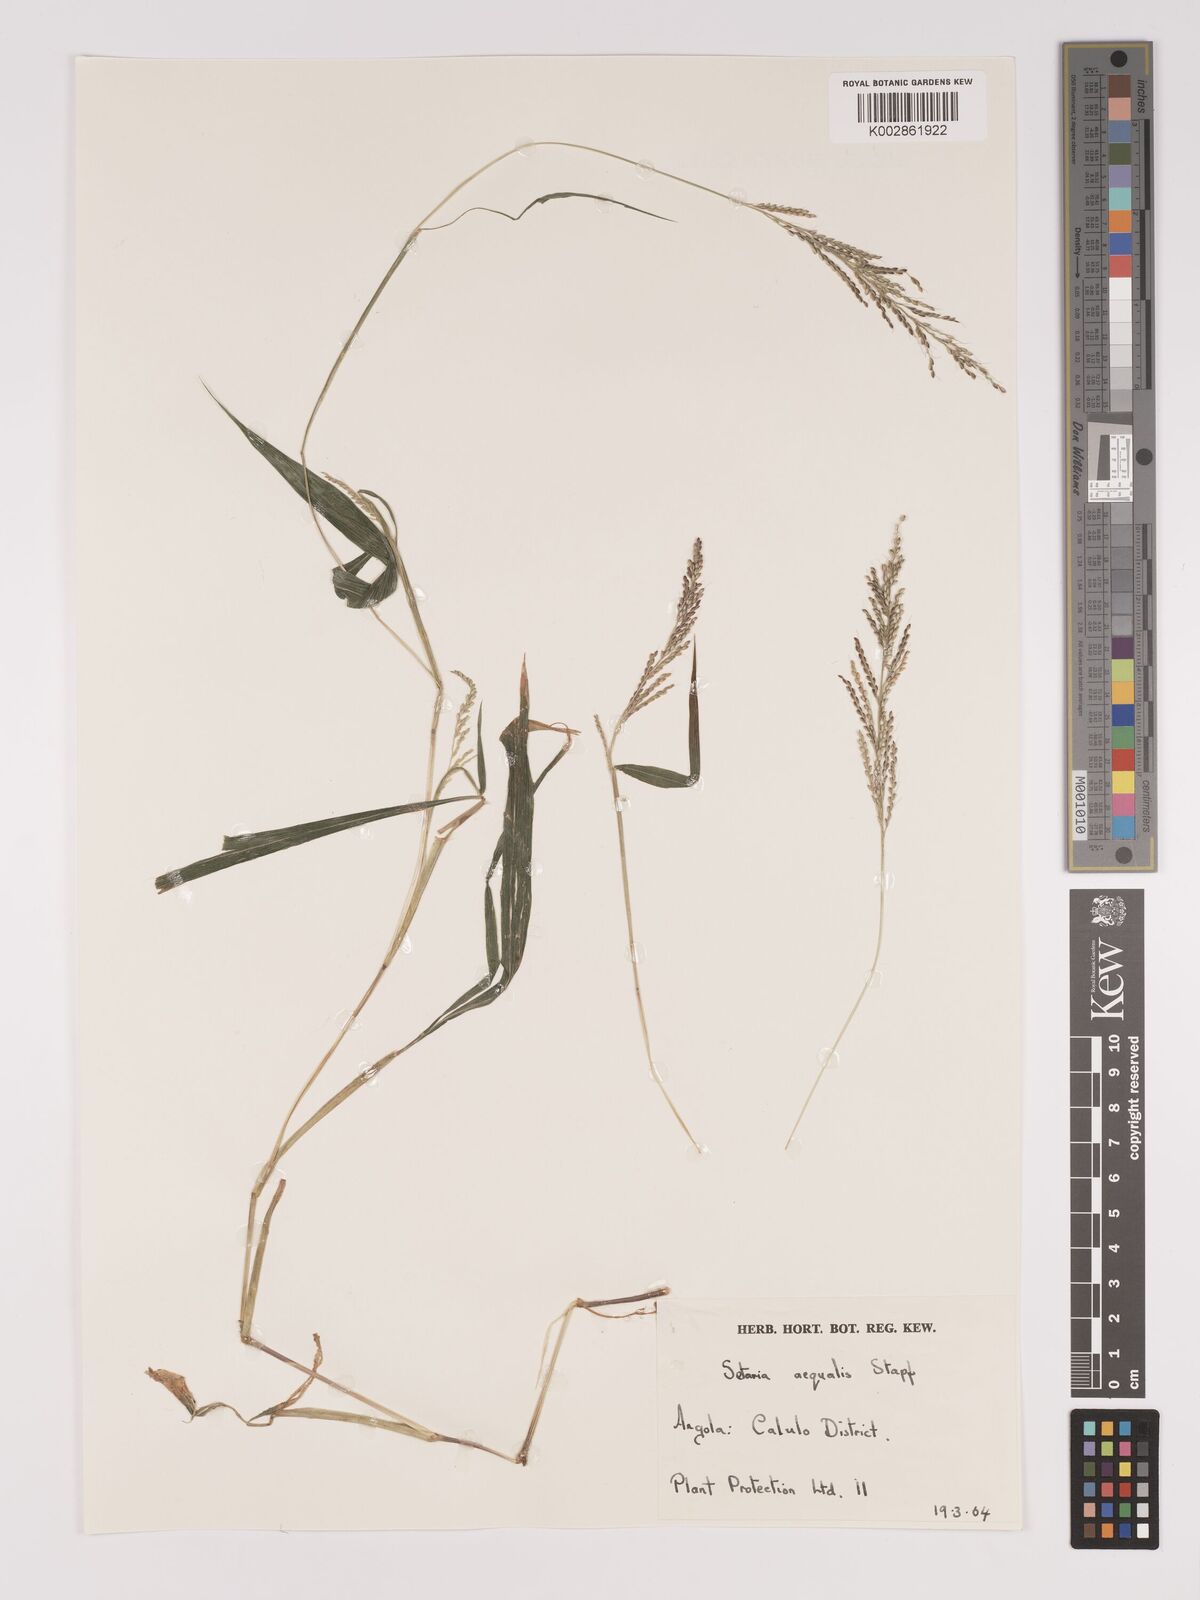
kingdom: Plantae
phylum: Tracheophyta
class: Liliopsida
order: Poales
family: Poaceae
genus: Setaria
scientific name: Setaria homonyma
